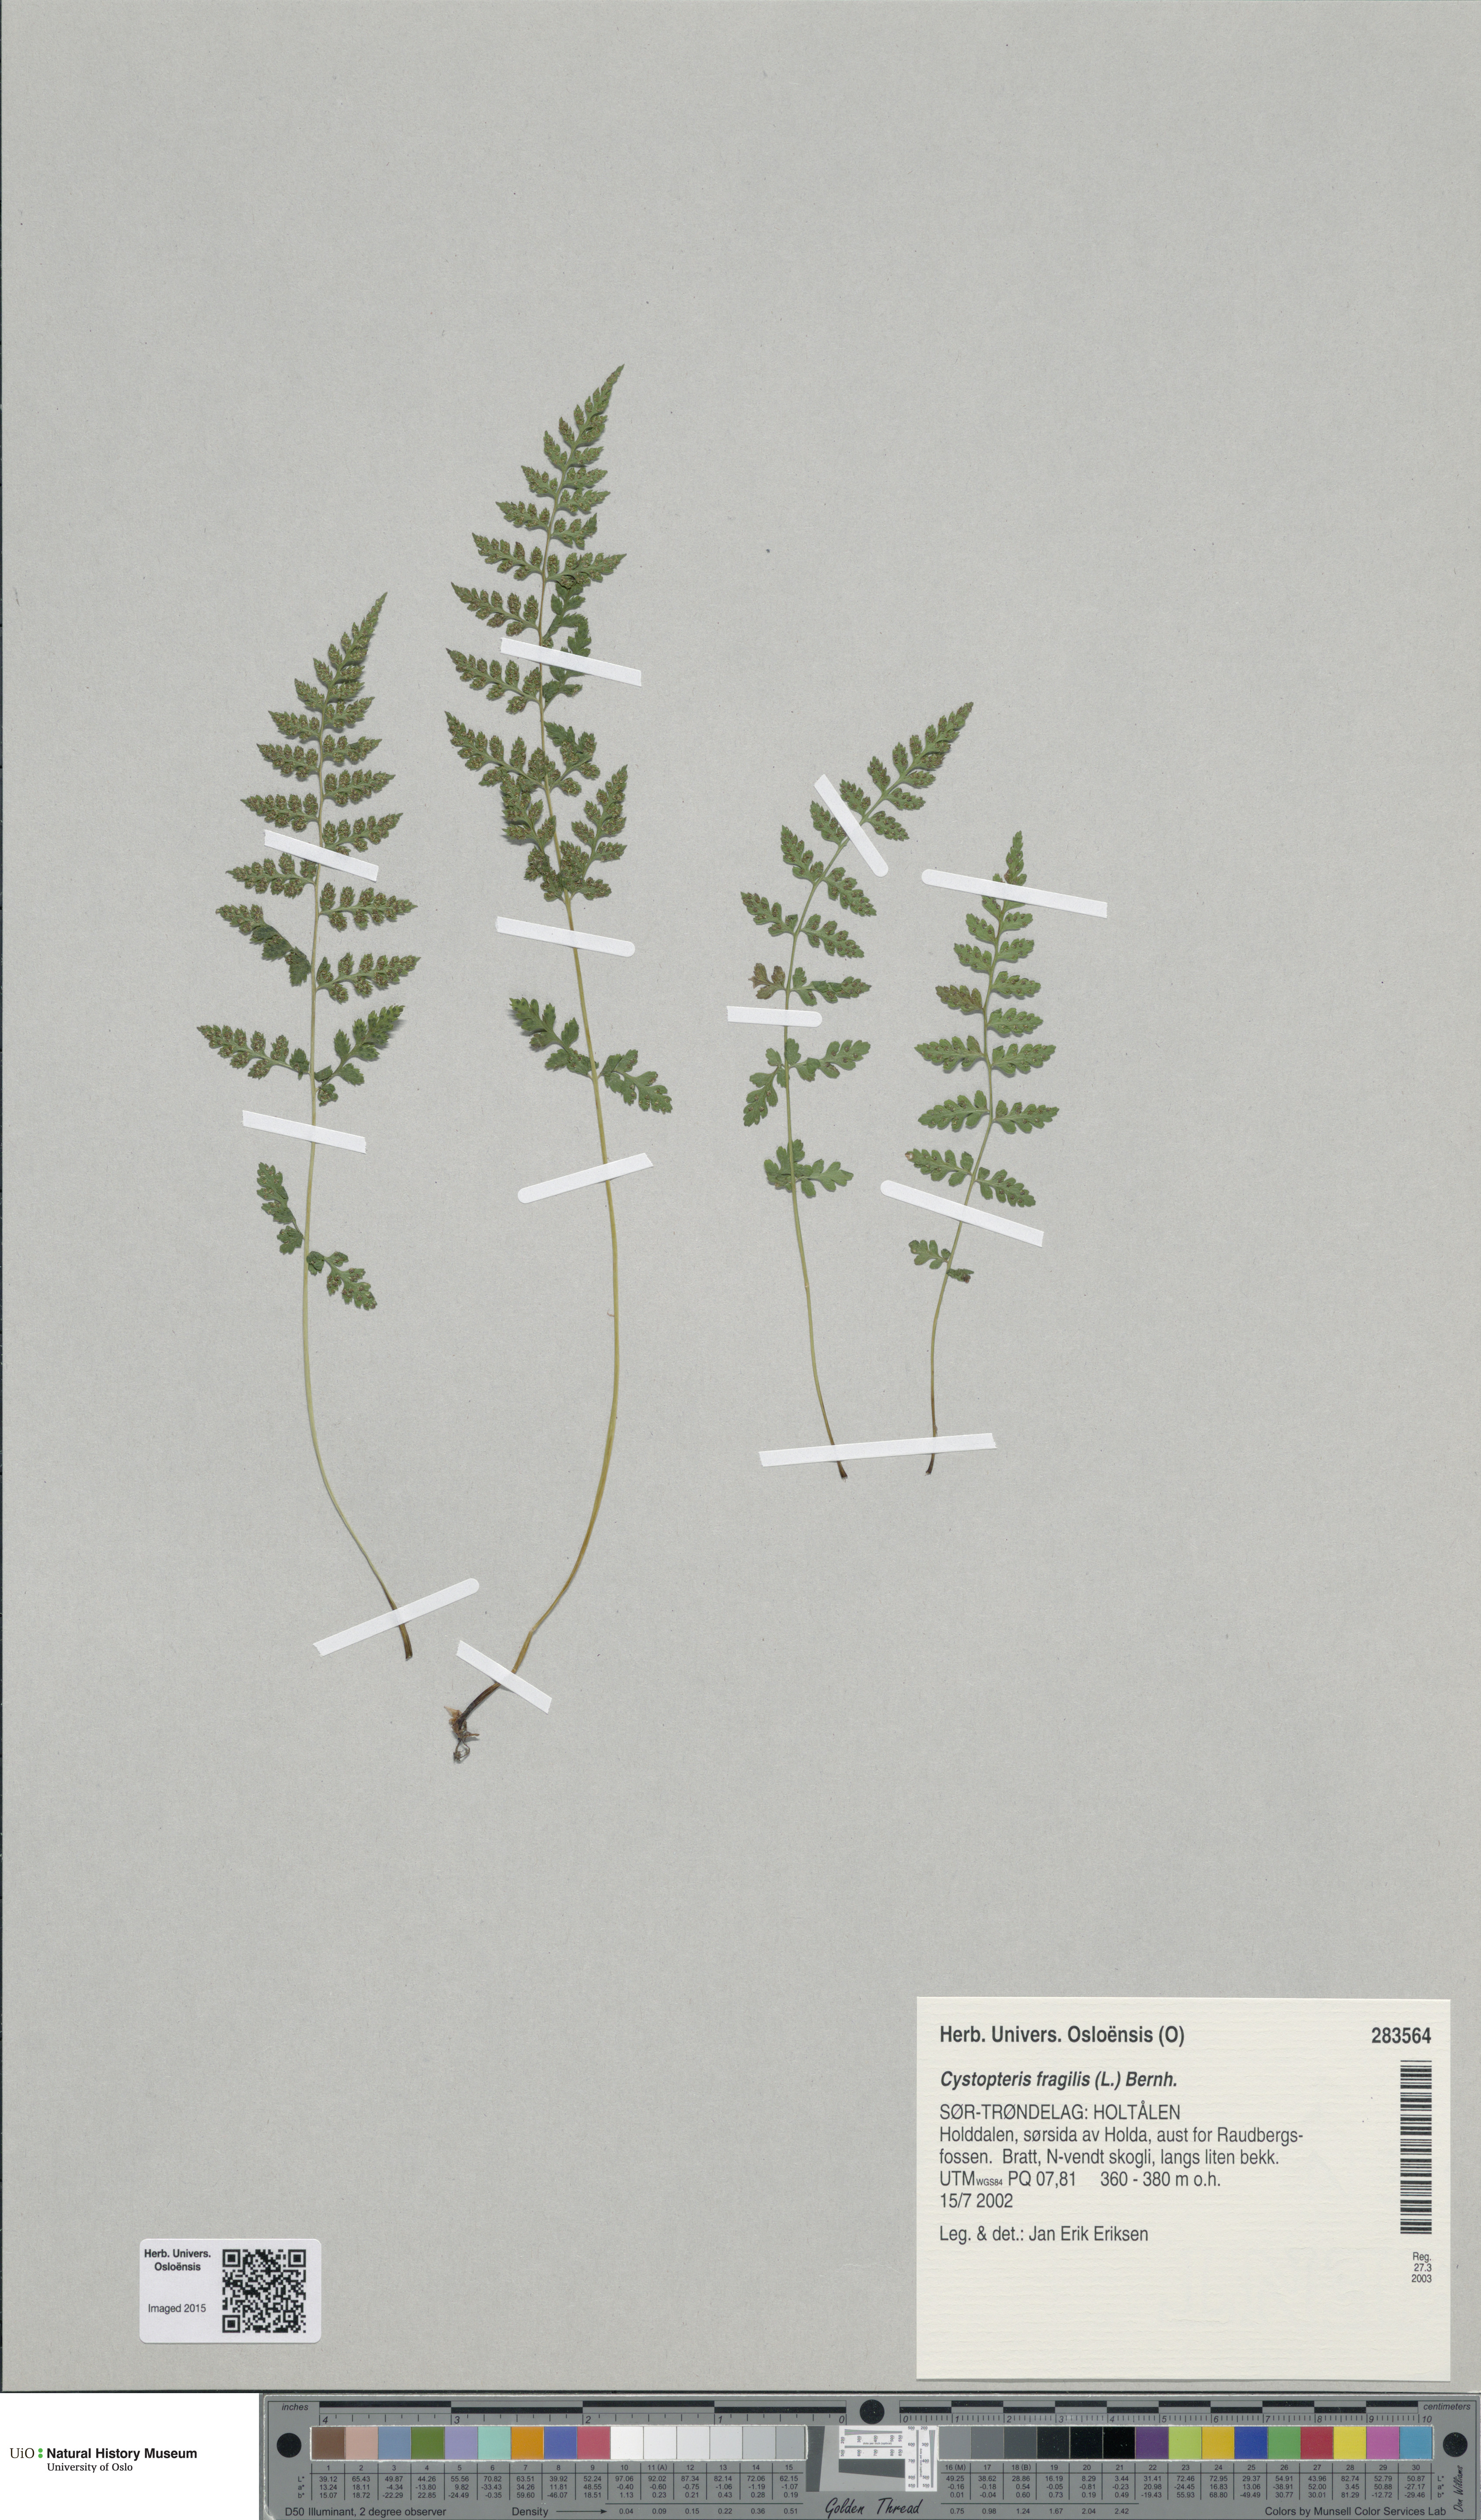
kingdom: Plantae
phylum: Tracheophyta
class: Polypodiopsida
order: Polypodiales
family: Cystopteridaceae
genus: Cystopteris
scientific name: Cystopteris fragilis
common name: Brittle bladder fern
